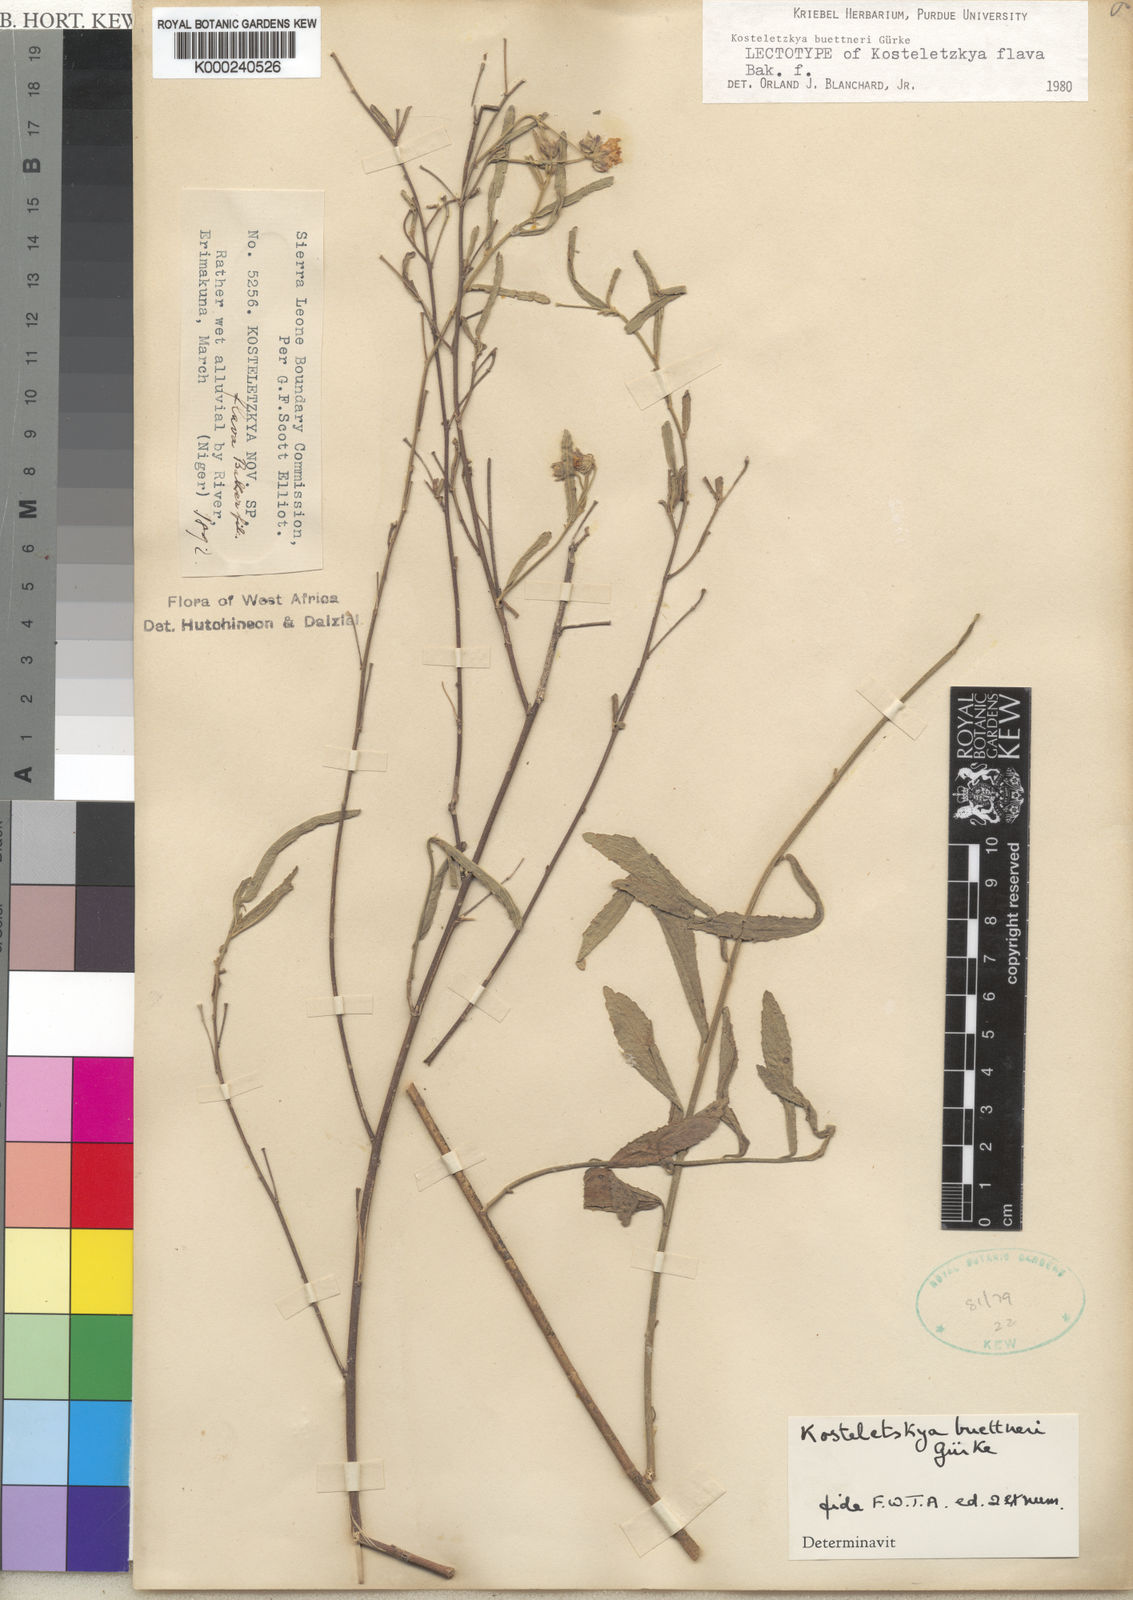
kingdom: Plantae
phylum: Tracheophyta
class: Magnoliopsida
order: Malvales
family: Malvaceae
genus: Kosteletzkya
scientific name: Kosteletzkya
